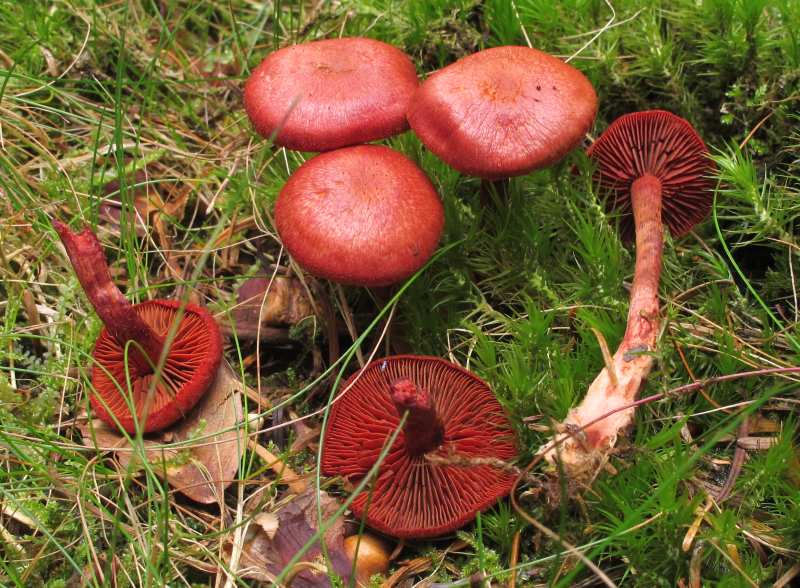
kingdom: Fungi
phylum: Basidiomycota
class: Agaricomycetes
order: Agaricales
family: Cortinariaceae
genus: Cortinarius
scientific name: Cortinarius sanguineus
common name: blodrød slørhat
